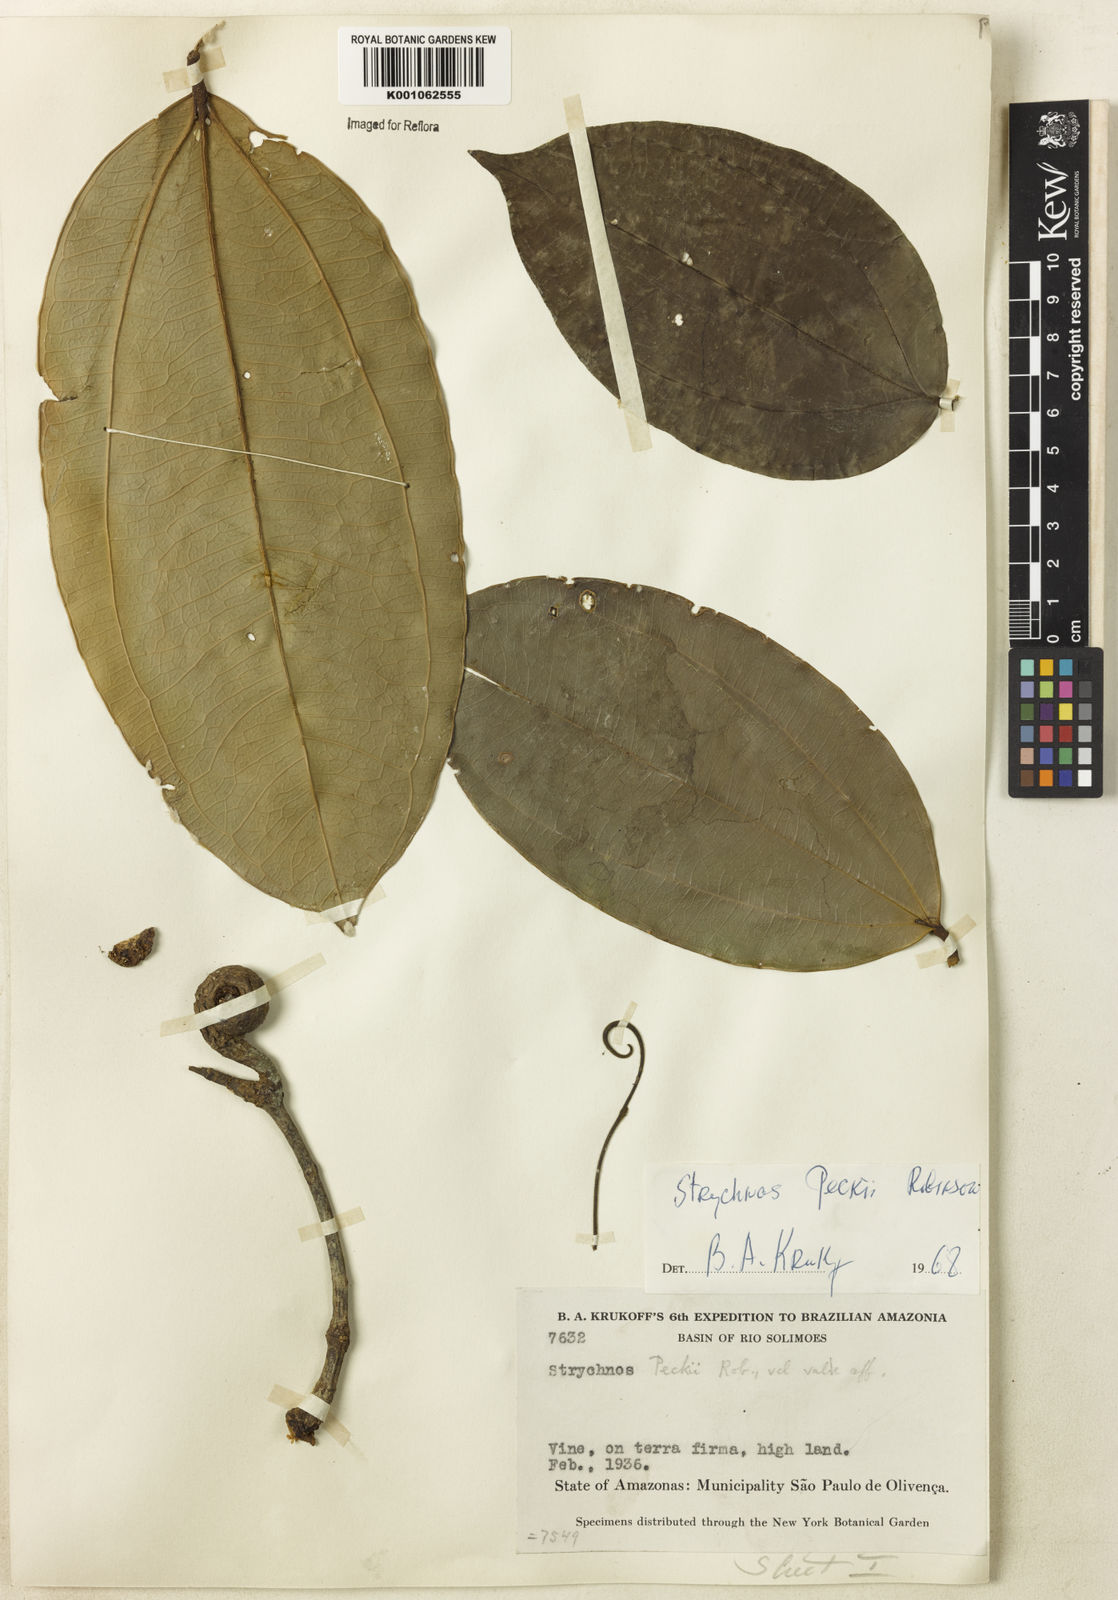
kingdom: Plantae
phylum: Tracheophyta
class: Magnoliopsida
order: Gentianales
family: Loganiaceae
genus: Strychnos
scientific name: Strychnos peckii
